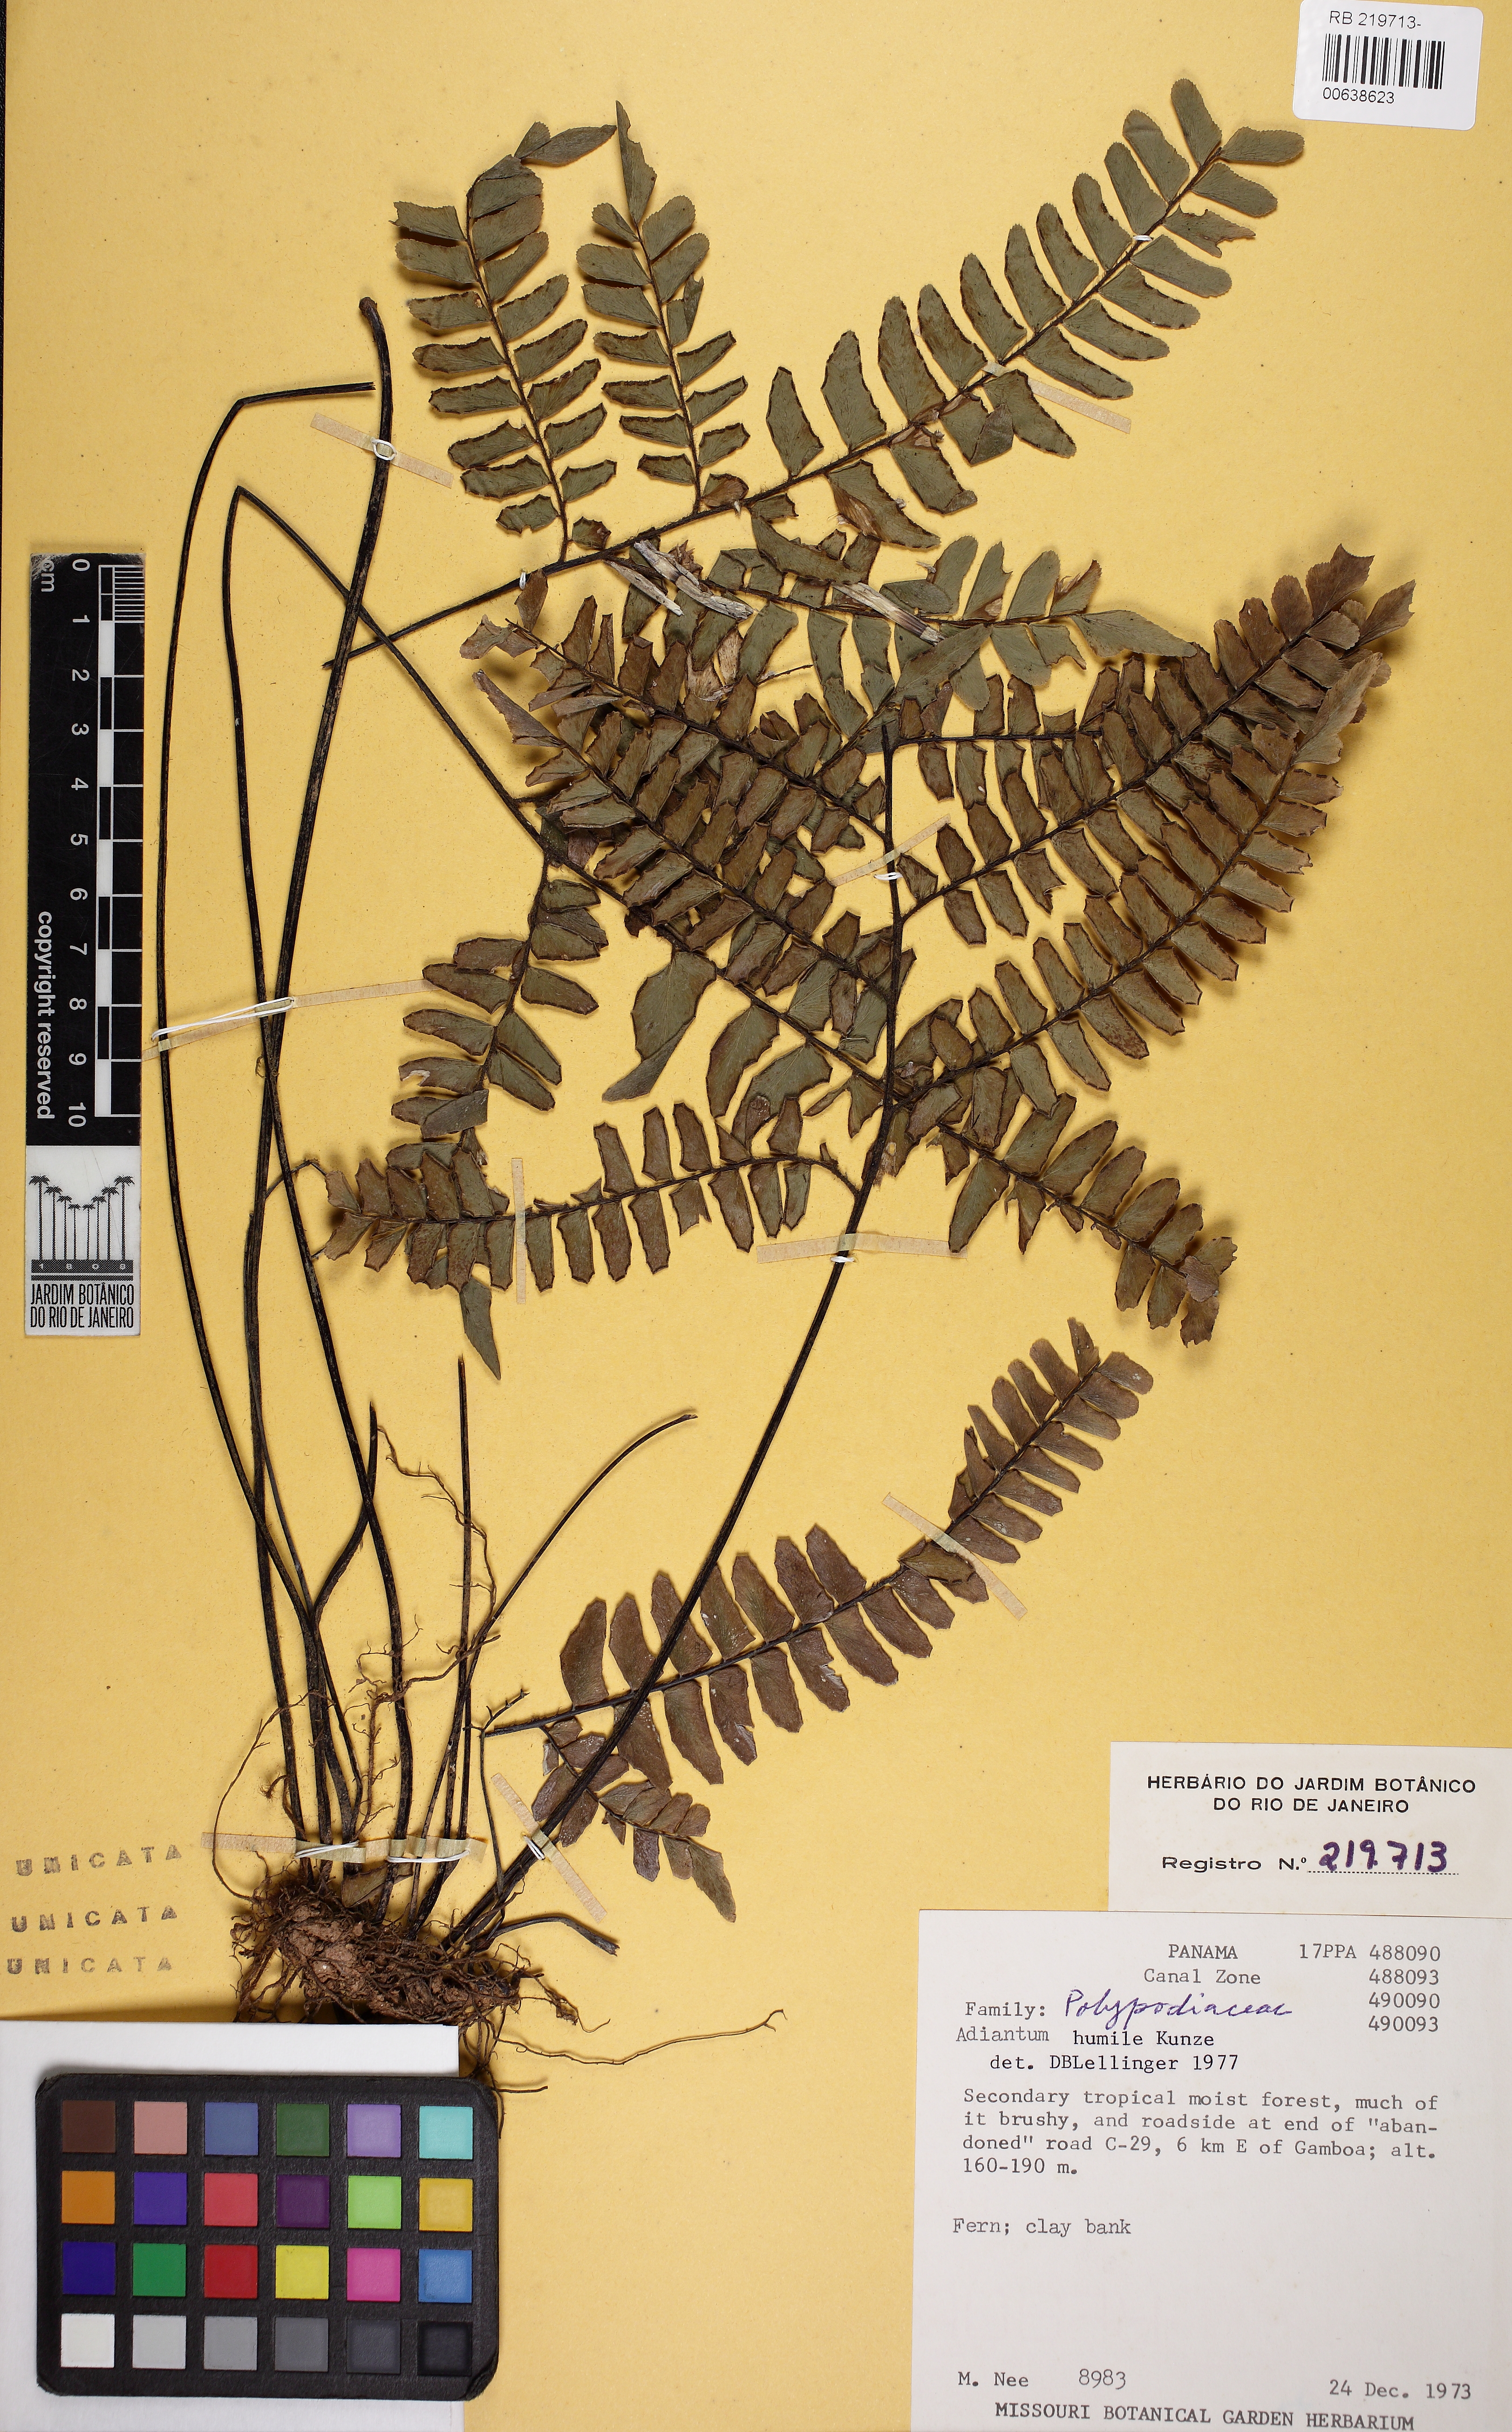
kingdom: Plantae
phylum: Tracheophyta
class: Polypodiopsida
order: Polypodiales
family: Pteridaceae
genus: Adiantum
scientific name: Adiantum humile
